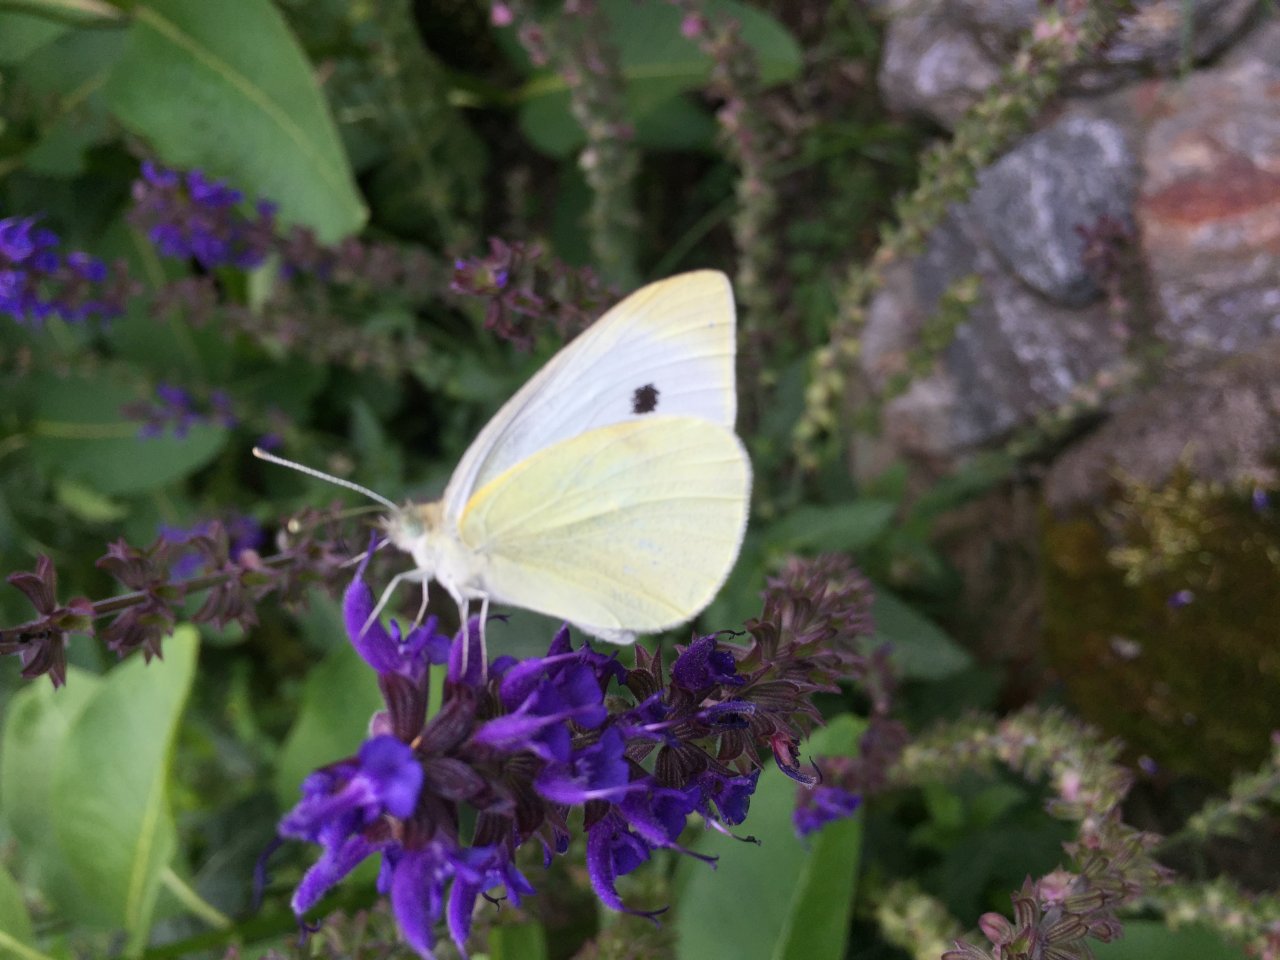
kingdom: Animalia
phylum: Arthropoda
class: Insecta
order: Lepidoptera
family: Pieridae
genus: Pieris
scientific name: Pieris rapae
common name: Cabbage White
